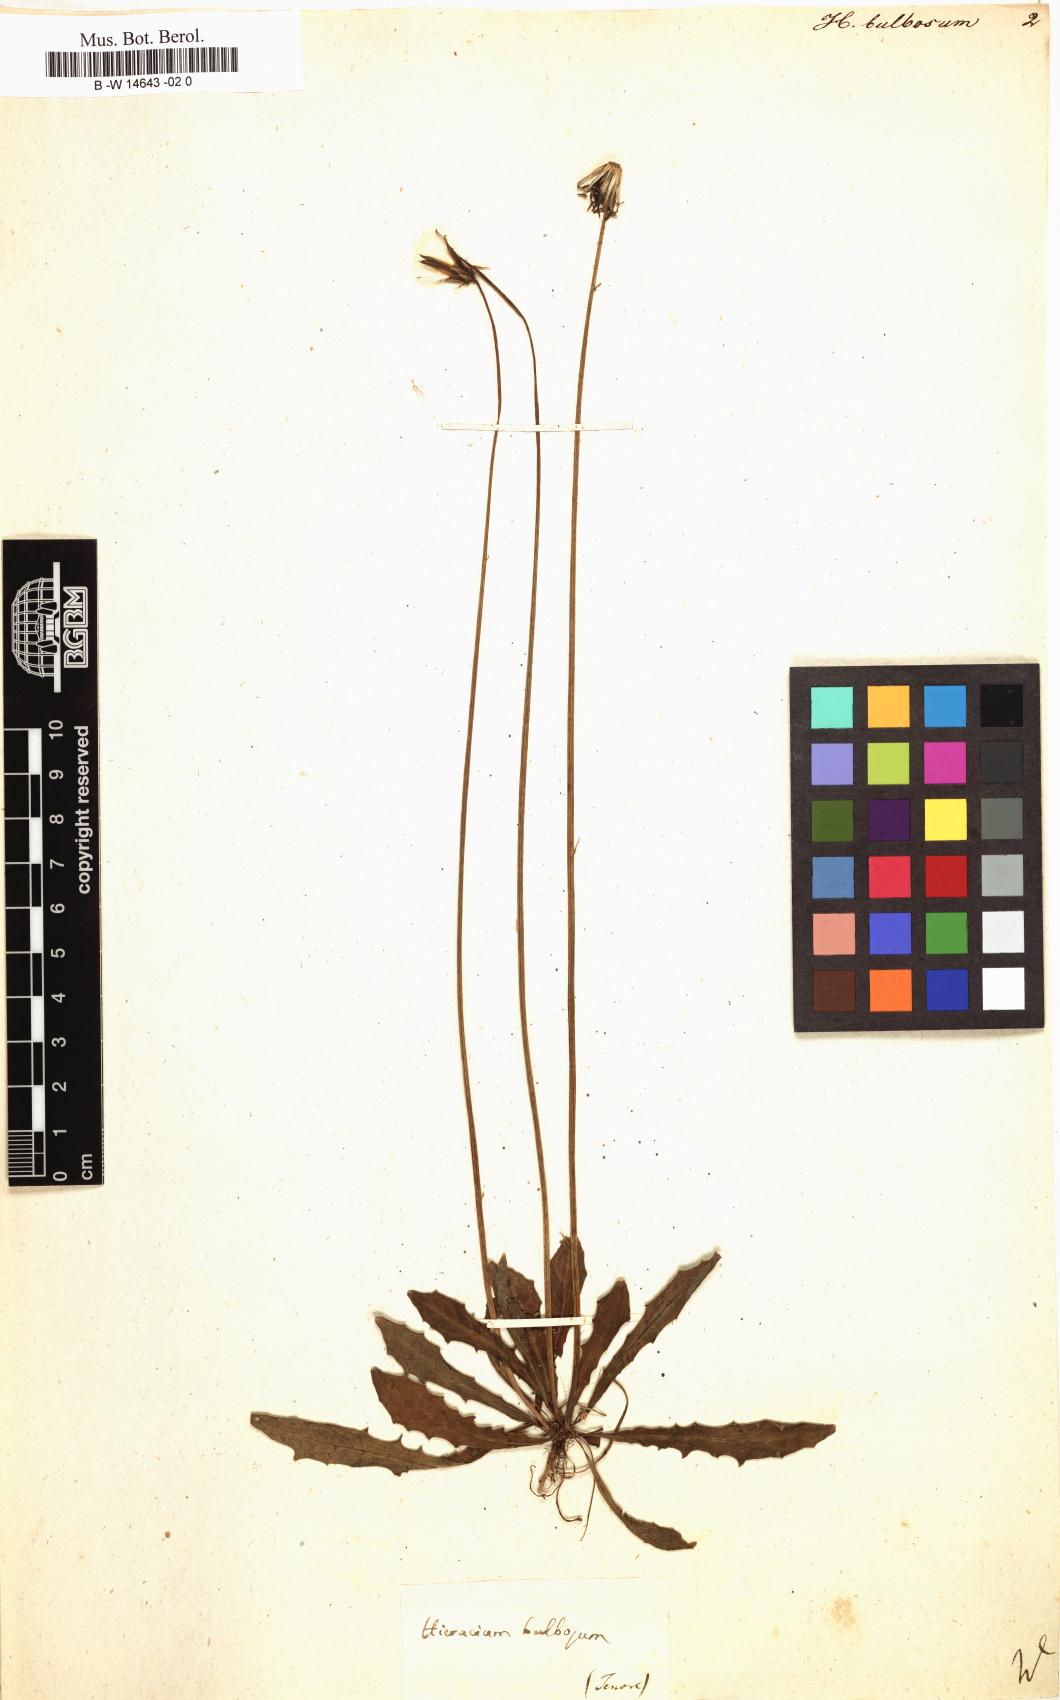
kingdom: Plantae
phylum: Tracheophyta
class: Magnoliopsida
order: Asterales
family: Asteraceae
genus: Aetheorhiza
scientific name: Aetheorhiza bulbosa
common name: Tuberous hawk's-beard
